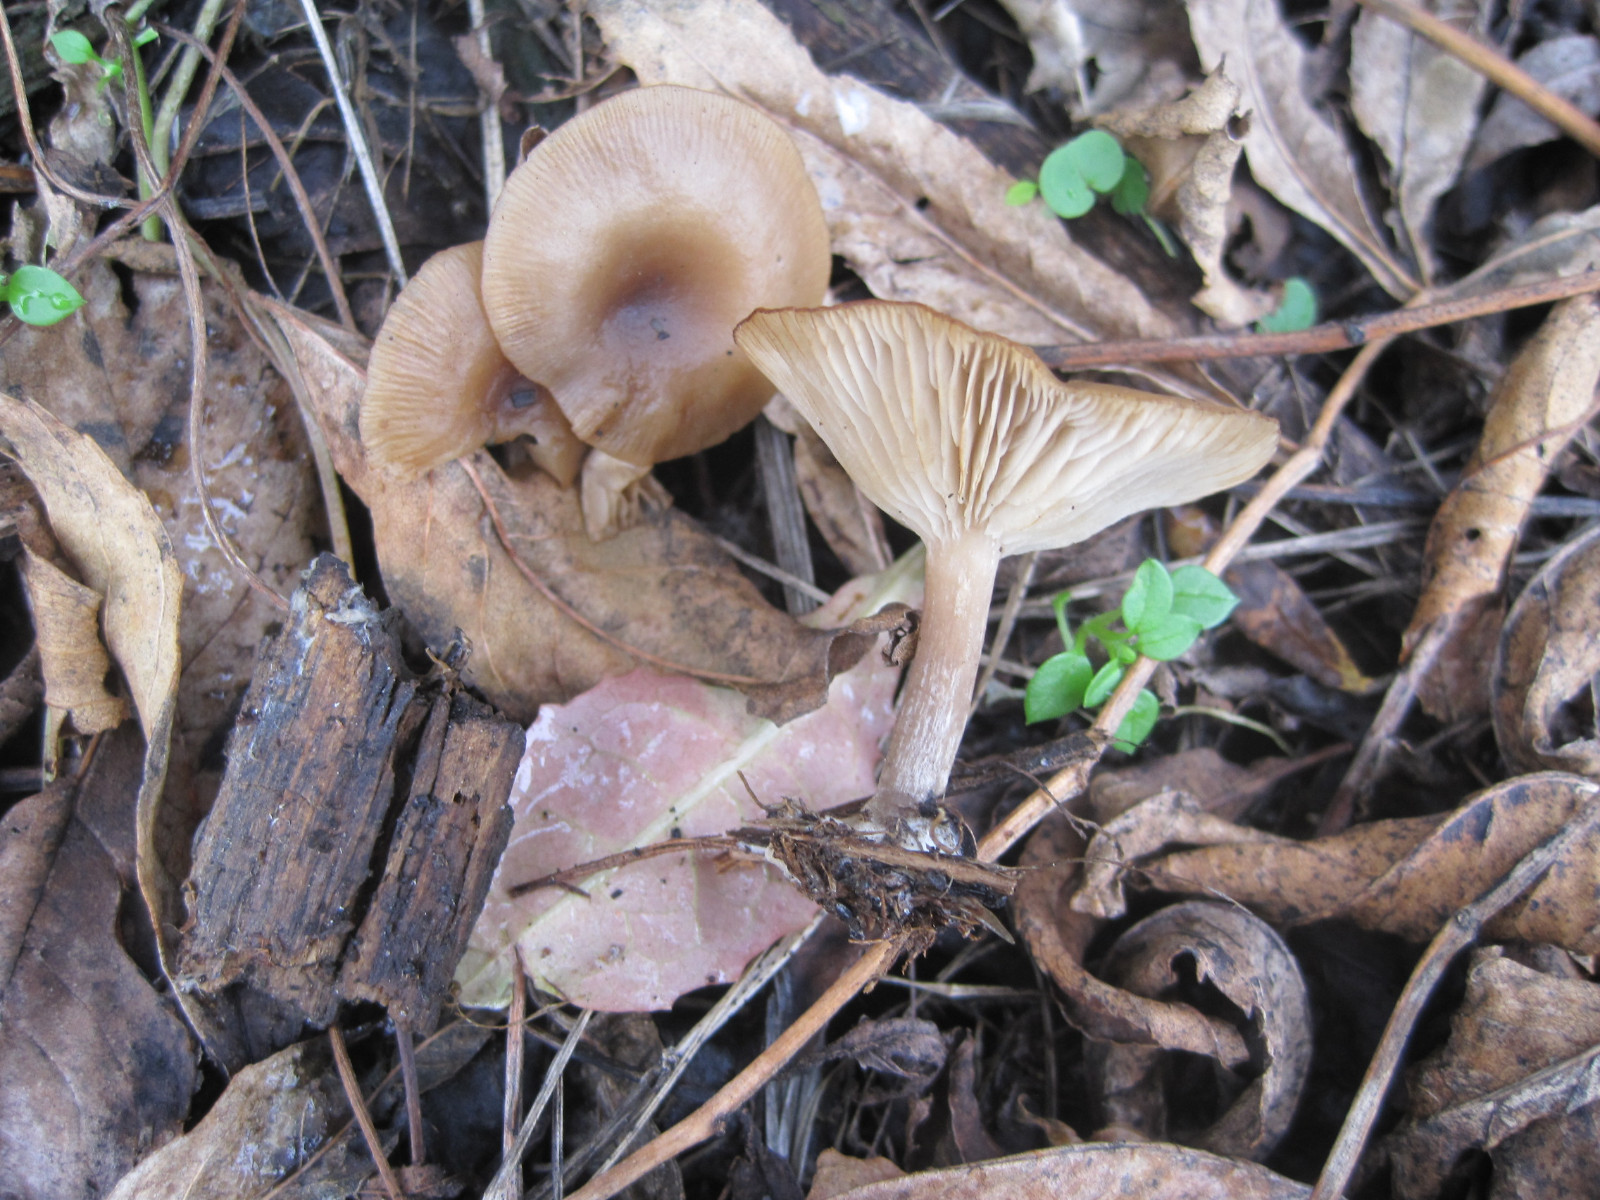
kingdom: Fungi
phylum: Basidiomycota
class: Agaricomycetes
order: Agaricales
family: Pseudoclitocybaceae
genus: Pseudoclitocybe
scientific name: Pseudoclitocybe expallens
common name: lille bægertragthat
